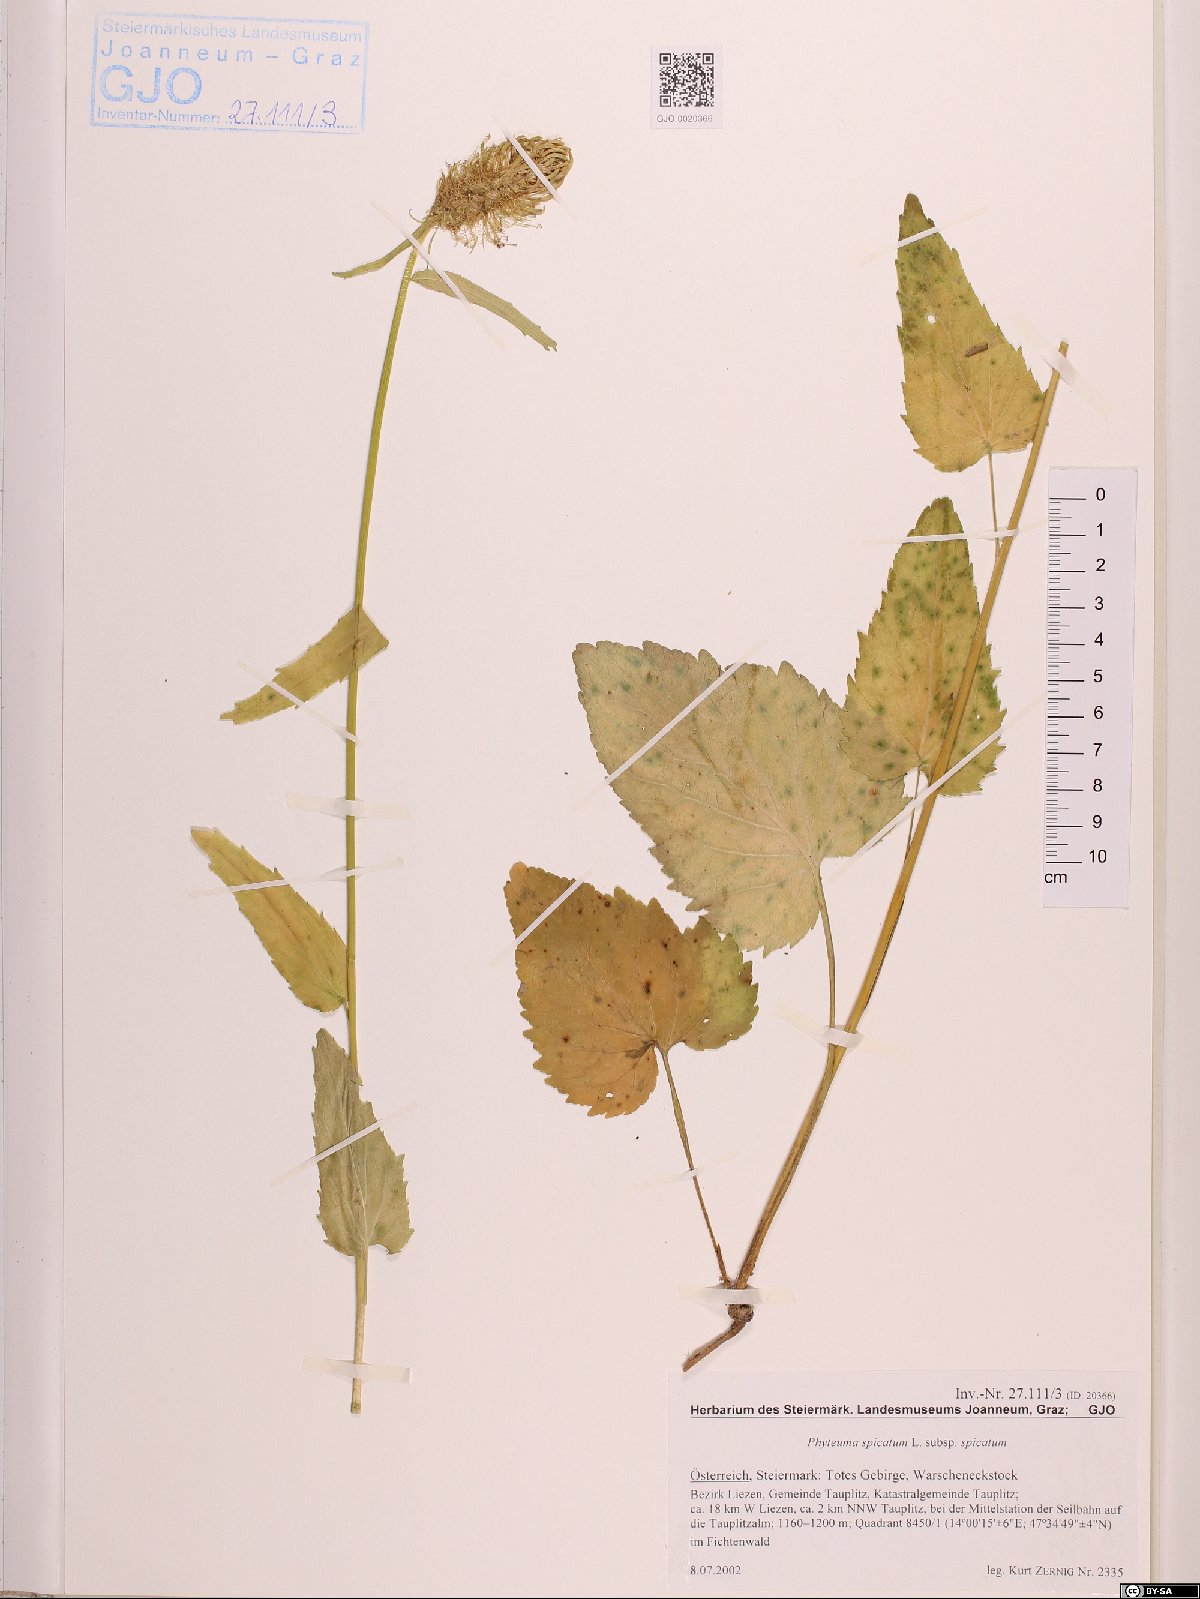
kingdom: Plantae
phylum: Tracheophyta
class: Magnoliopsida
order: Asterales
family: Campanulaceae
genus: Phyteuma
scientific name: Phyteuma spicatum
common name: Spiked rampion
